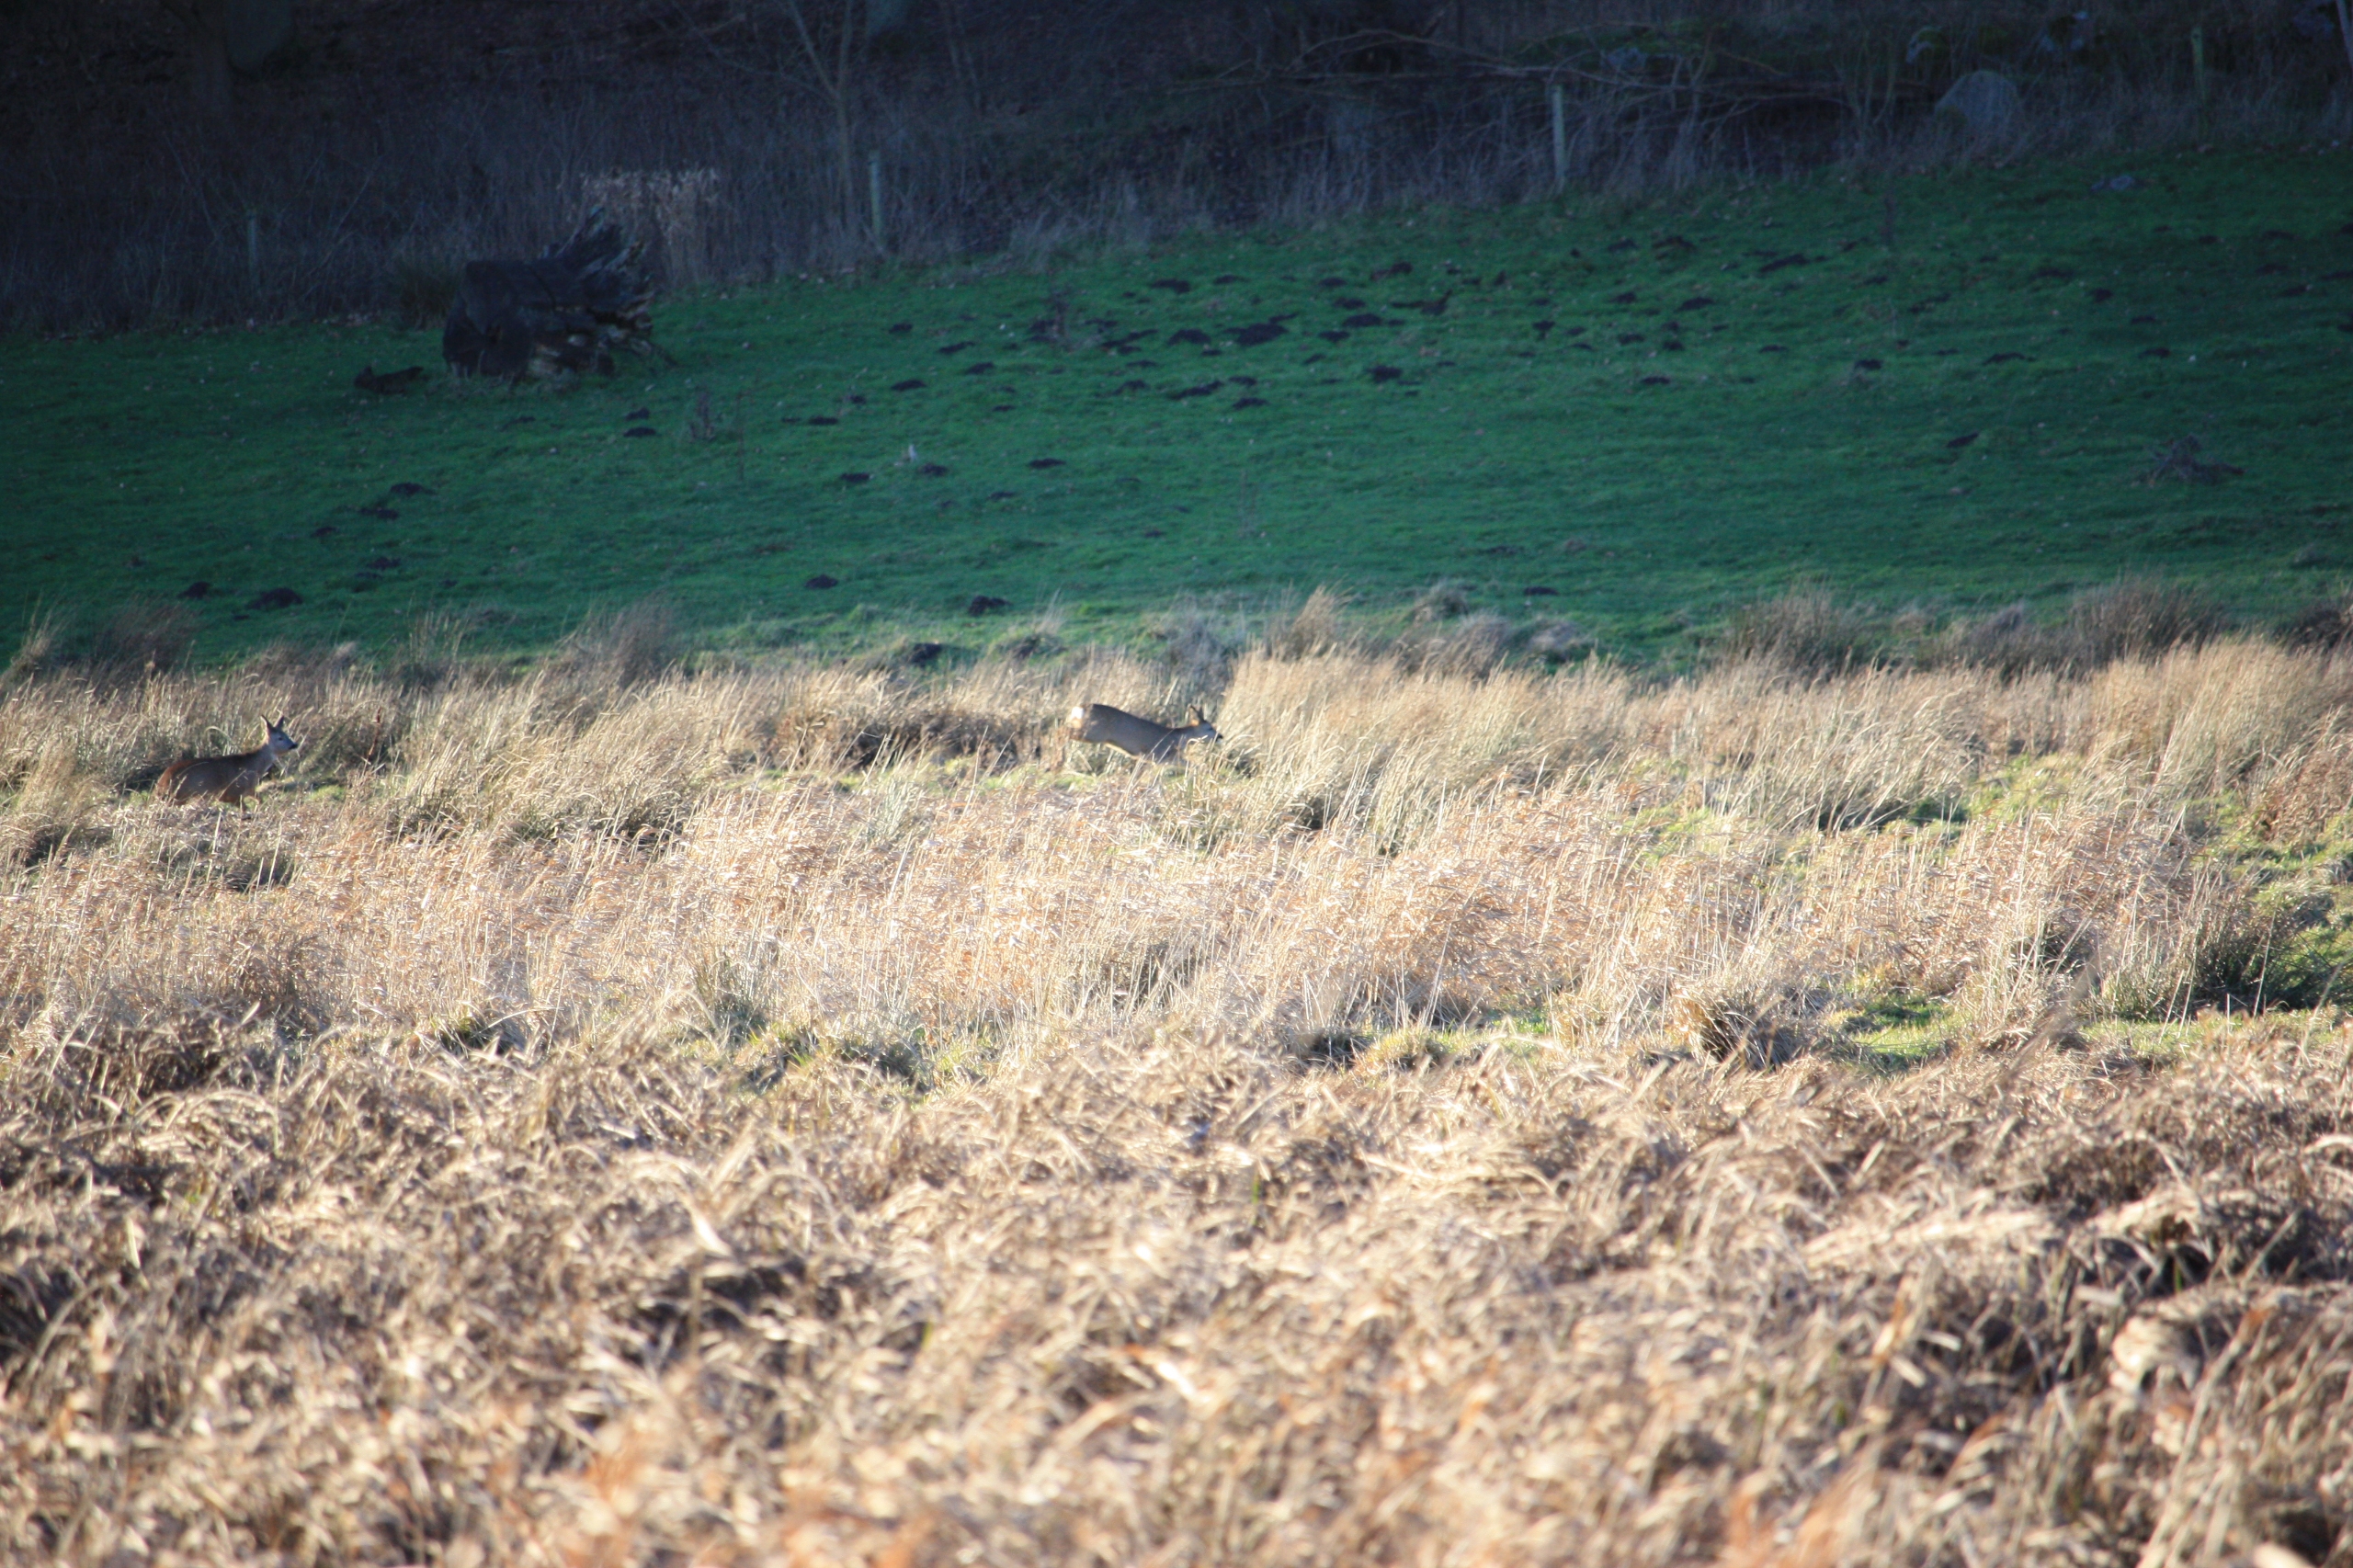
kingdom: Animalia
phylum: Chordata
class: Mammalia
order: Artiodactyla
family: Cervidae
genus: Capreolus
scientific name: Capreolus capreolus
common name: Rådyr
